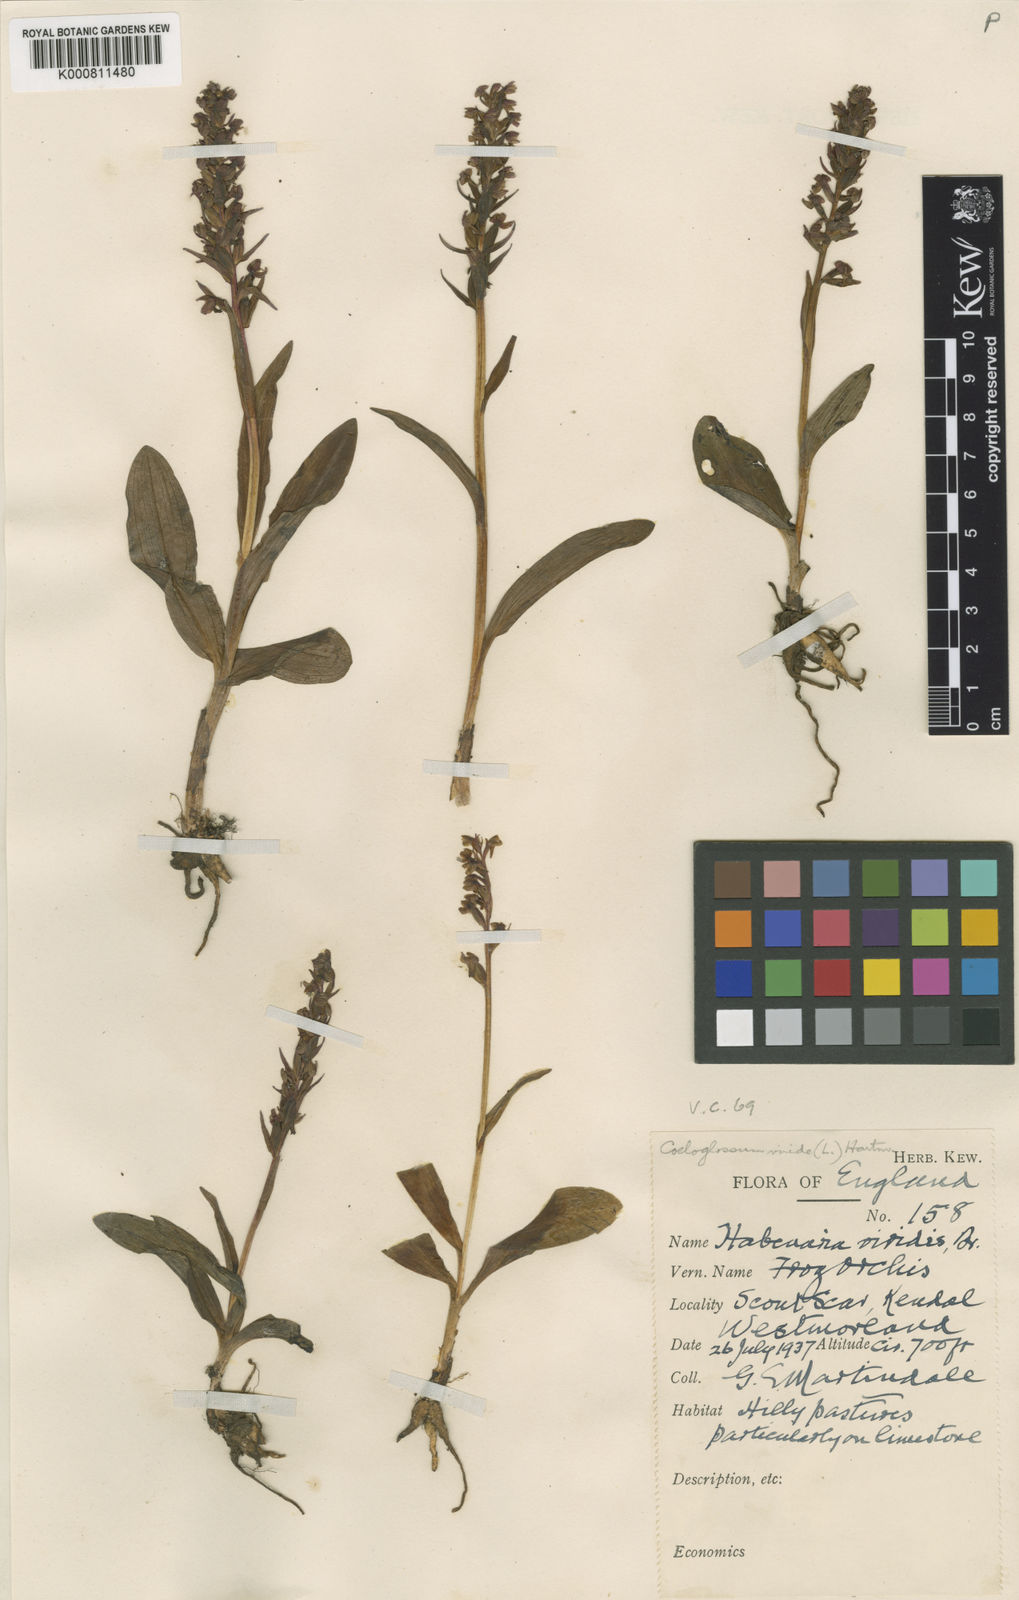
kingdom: Plantae
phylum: Tracheophyta
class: Liliopsida
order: Asparagales
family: Orchidaceae
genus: Dactylorhiza
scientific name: Dactylorhiza viridis
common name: Longbract frog orchid
